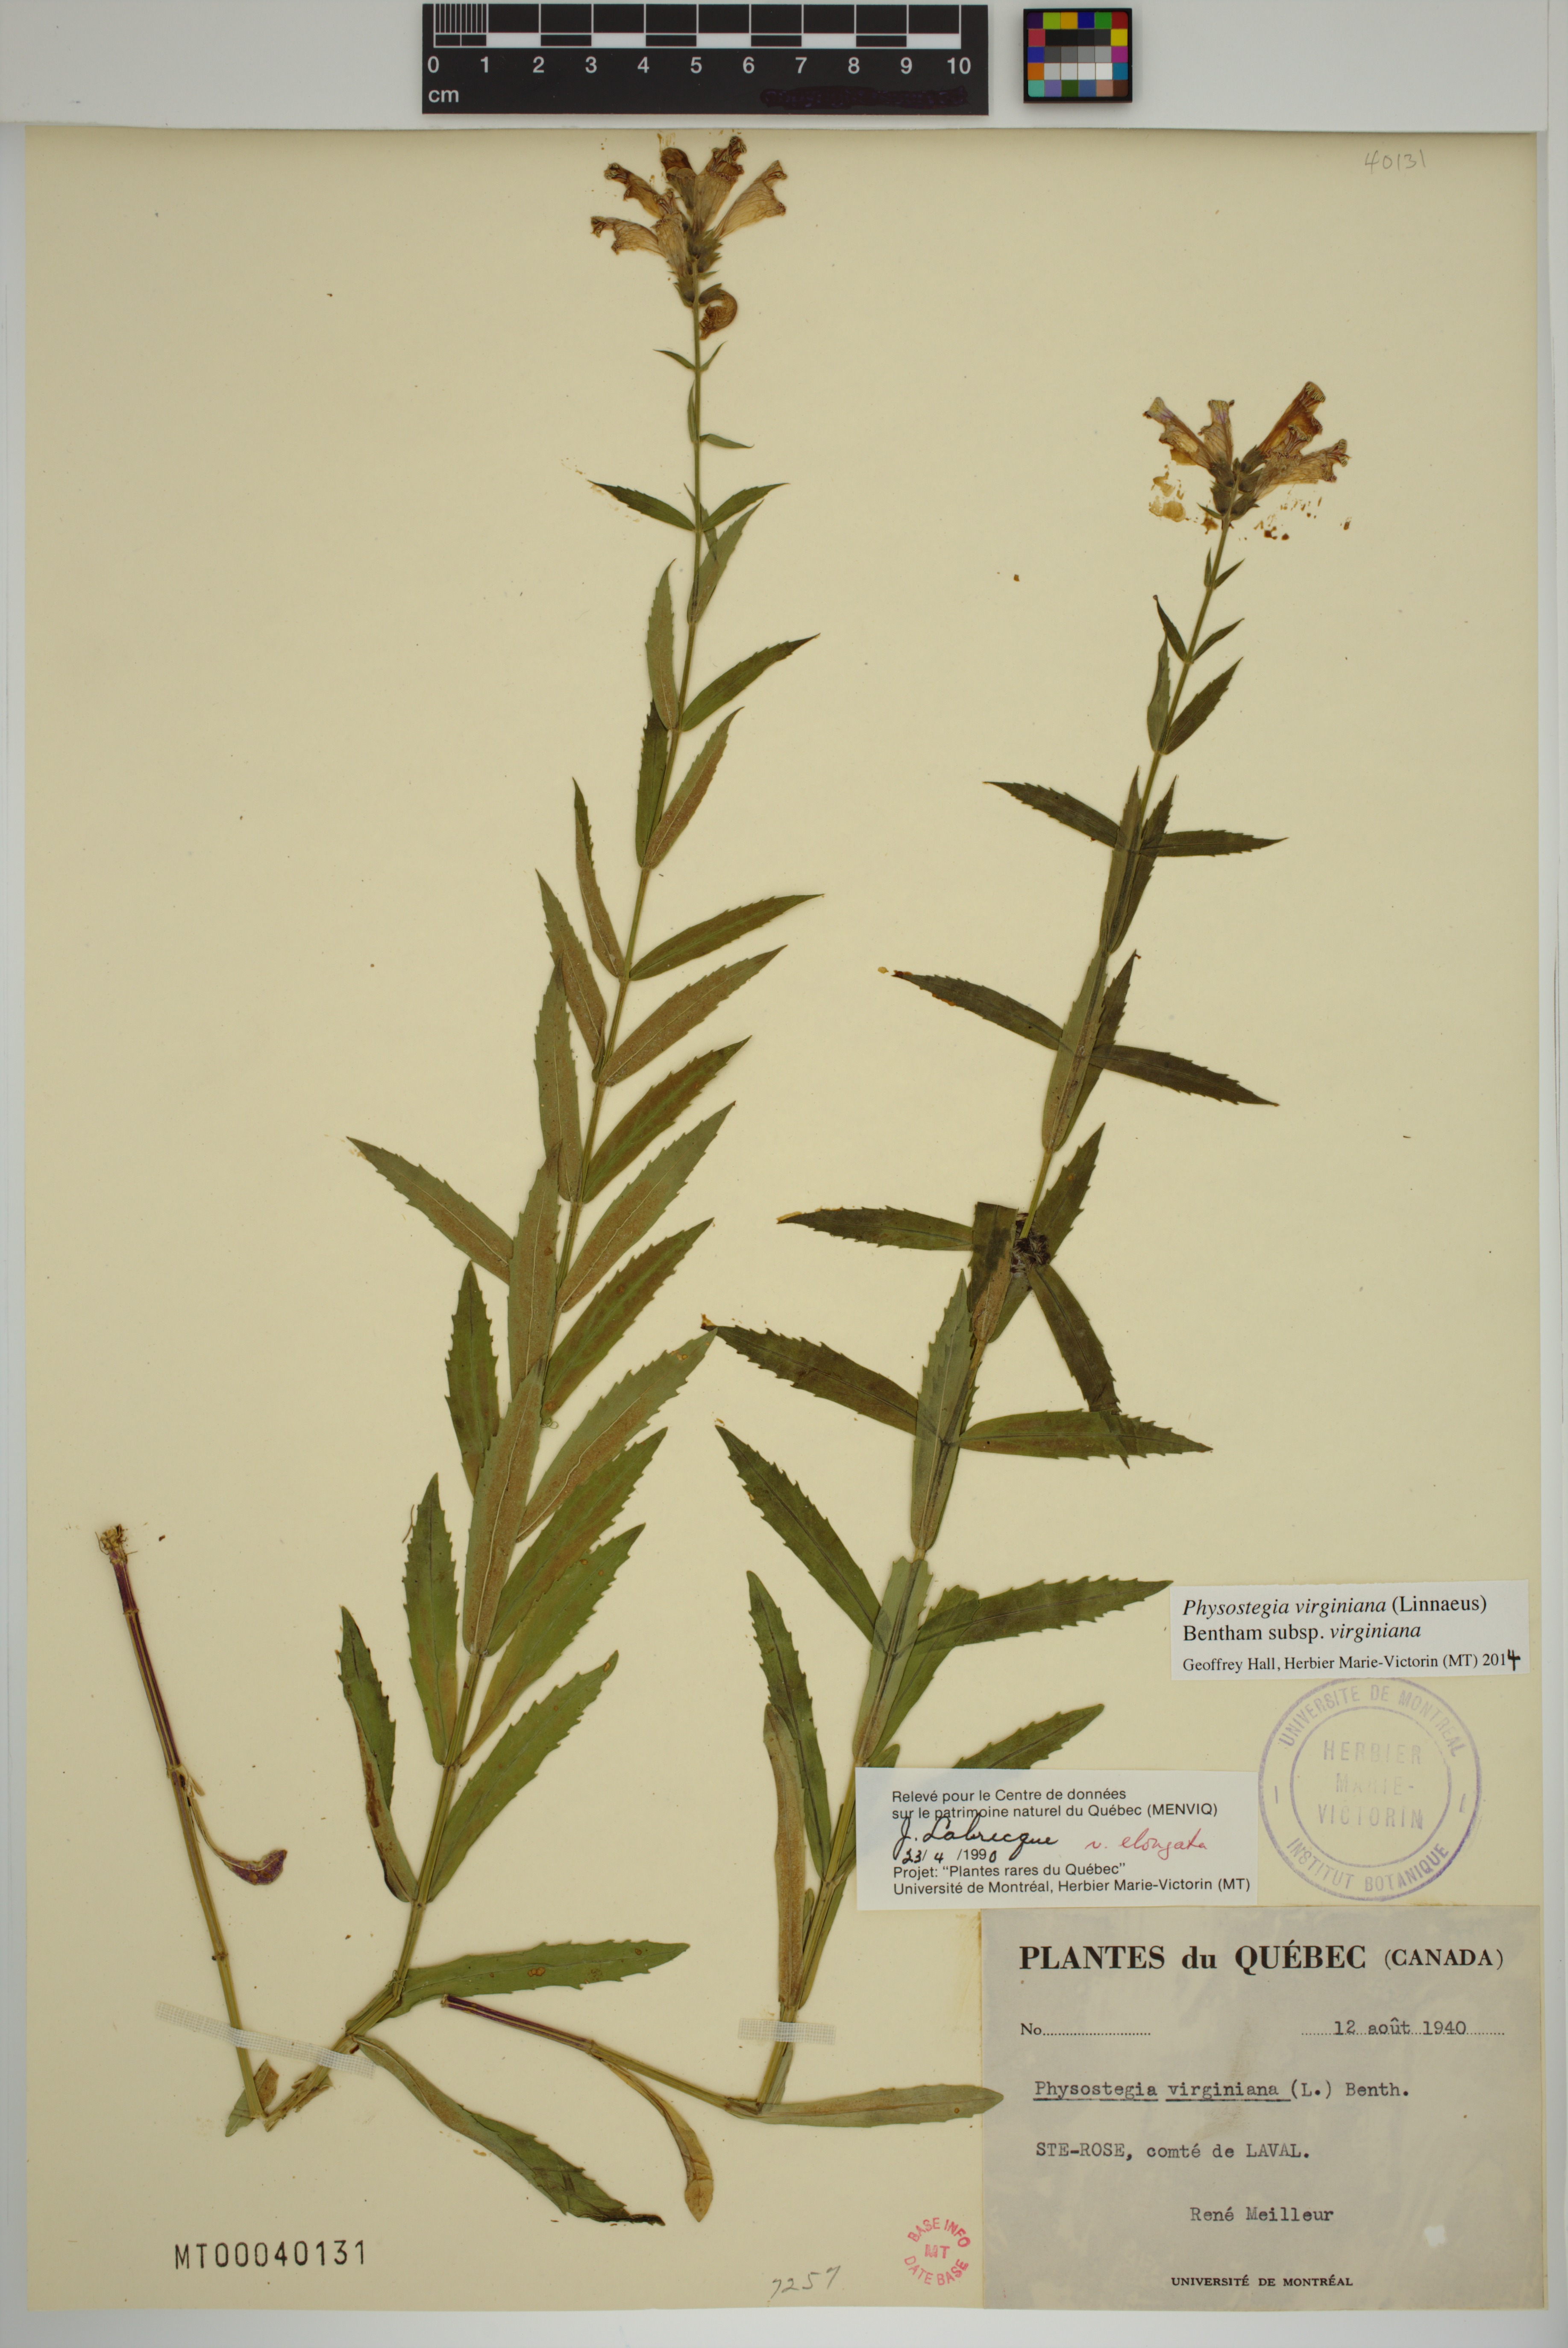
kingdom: Plantae
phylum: Tracheophyta
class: Magnoliopsida
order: Lamiales
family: Lamiaceae
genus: Physostegia
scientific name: Physostegia virginiana
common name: Obedient-plant
